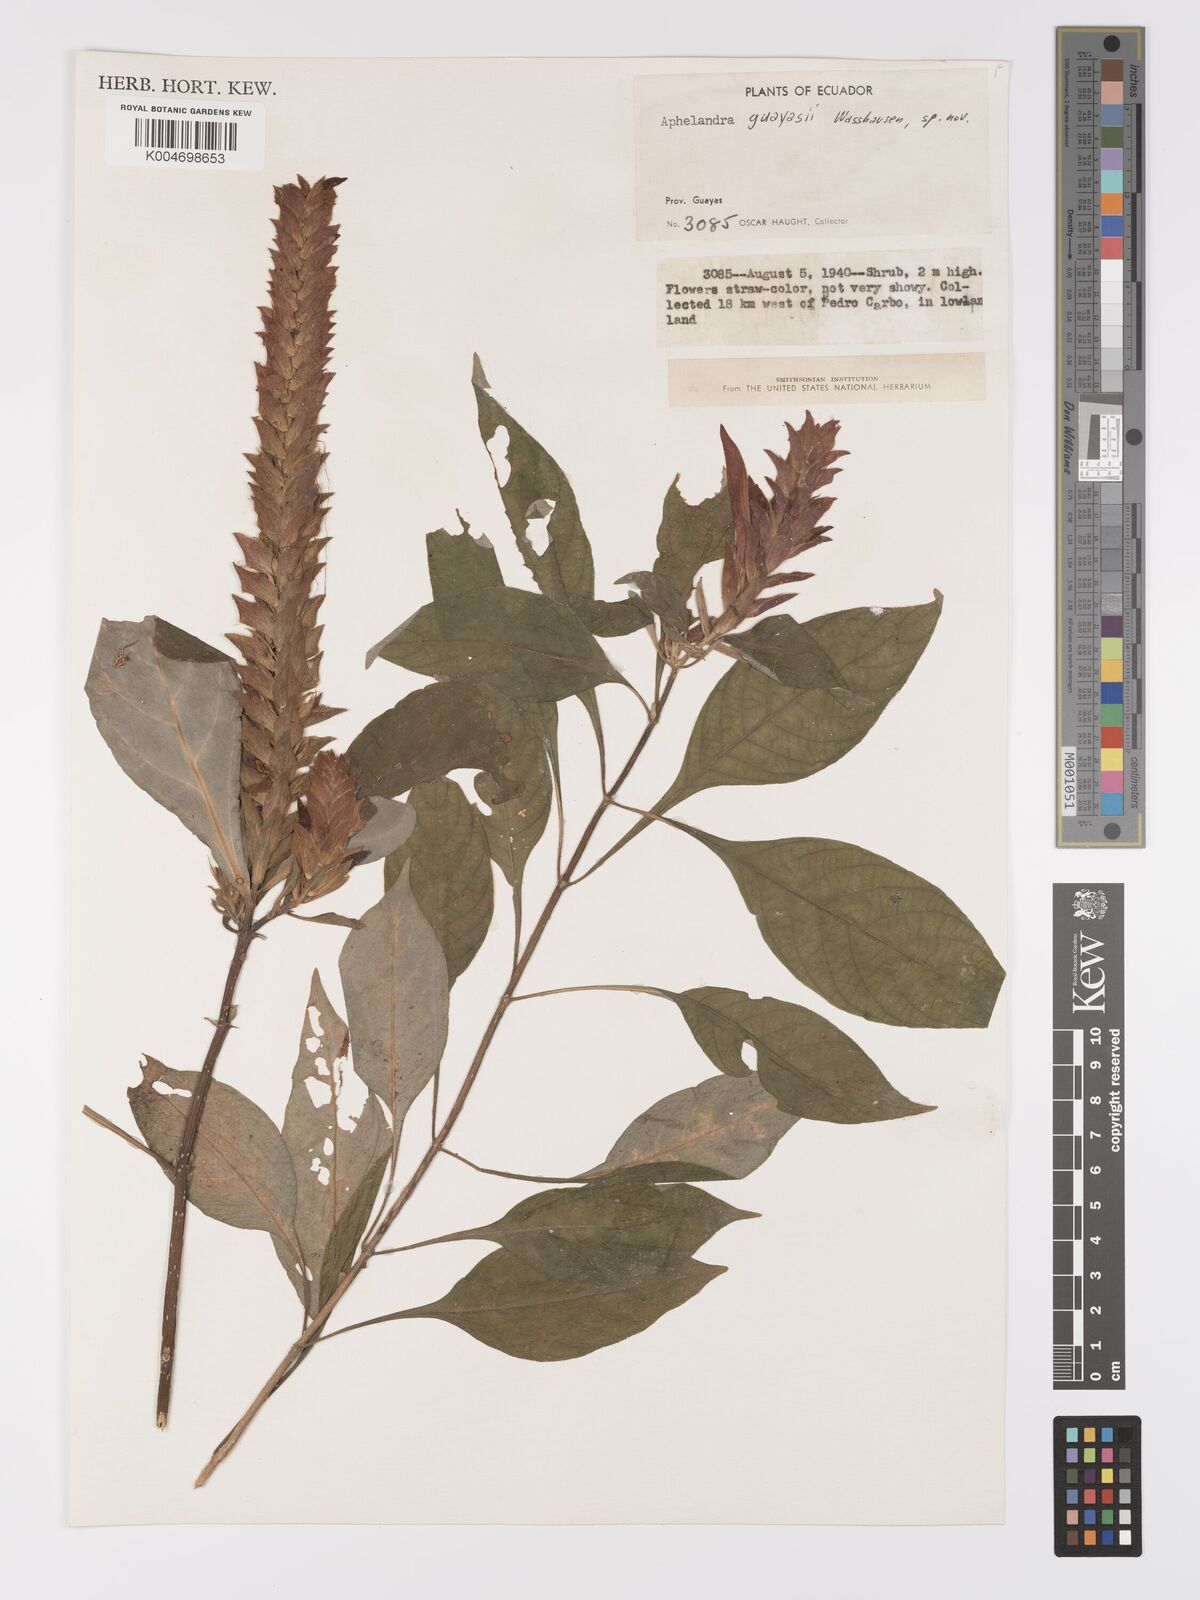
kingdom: Plantae
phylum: Tracheophyta
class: Magnoliopsida
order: Lamiales
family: Acanthaceae
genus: Aphelandra
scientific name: Aphelandra guayasii
